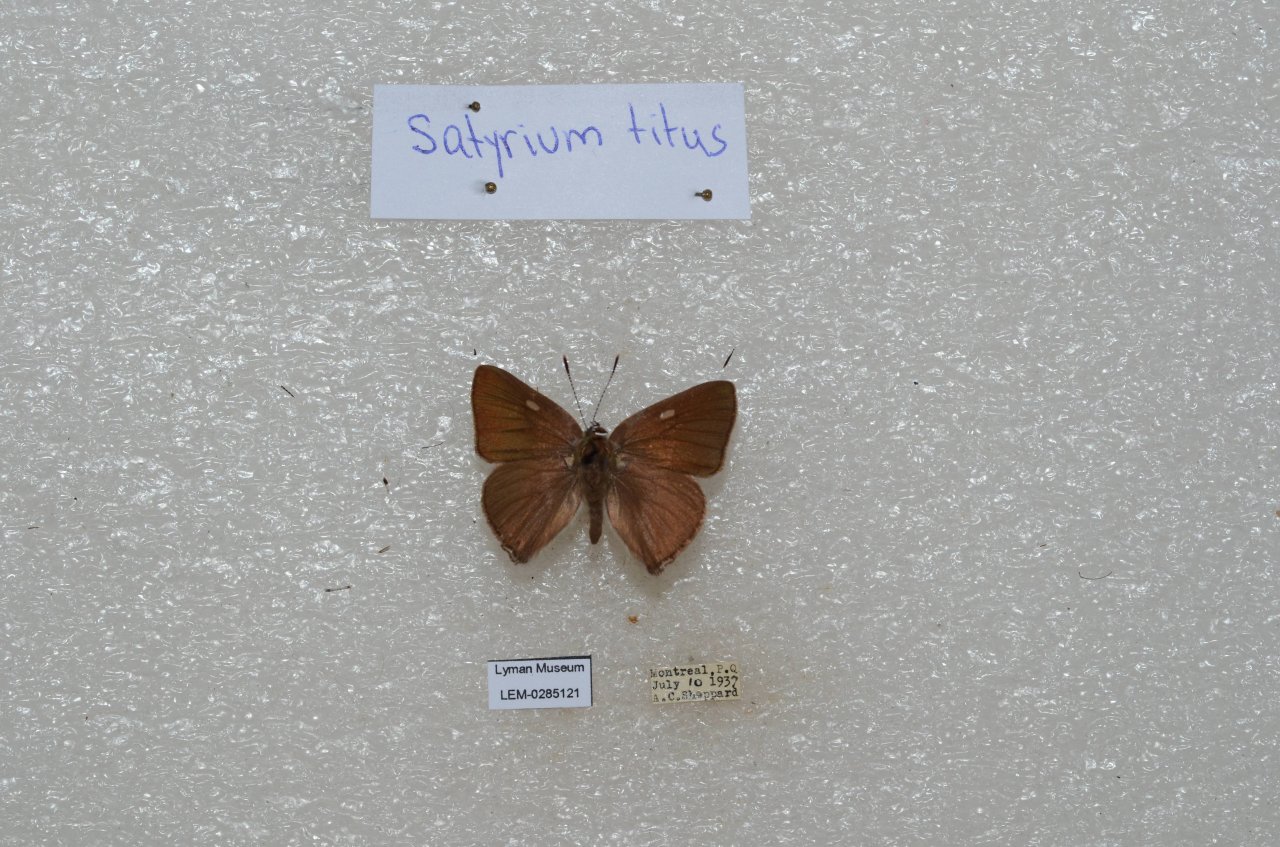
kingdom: Animalia
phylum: Arthropoda
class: Insecta
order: Lepidoptera
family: Lycaenidae
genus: Harkenclenus
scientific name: Harkenclenus titus
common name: Coral Hairstreak
